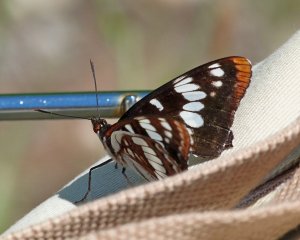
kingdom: Animalia
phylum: Arthropoda
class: Insecta
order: Lepidoptera
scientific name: Lepidoptera
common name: Butterflies
